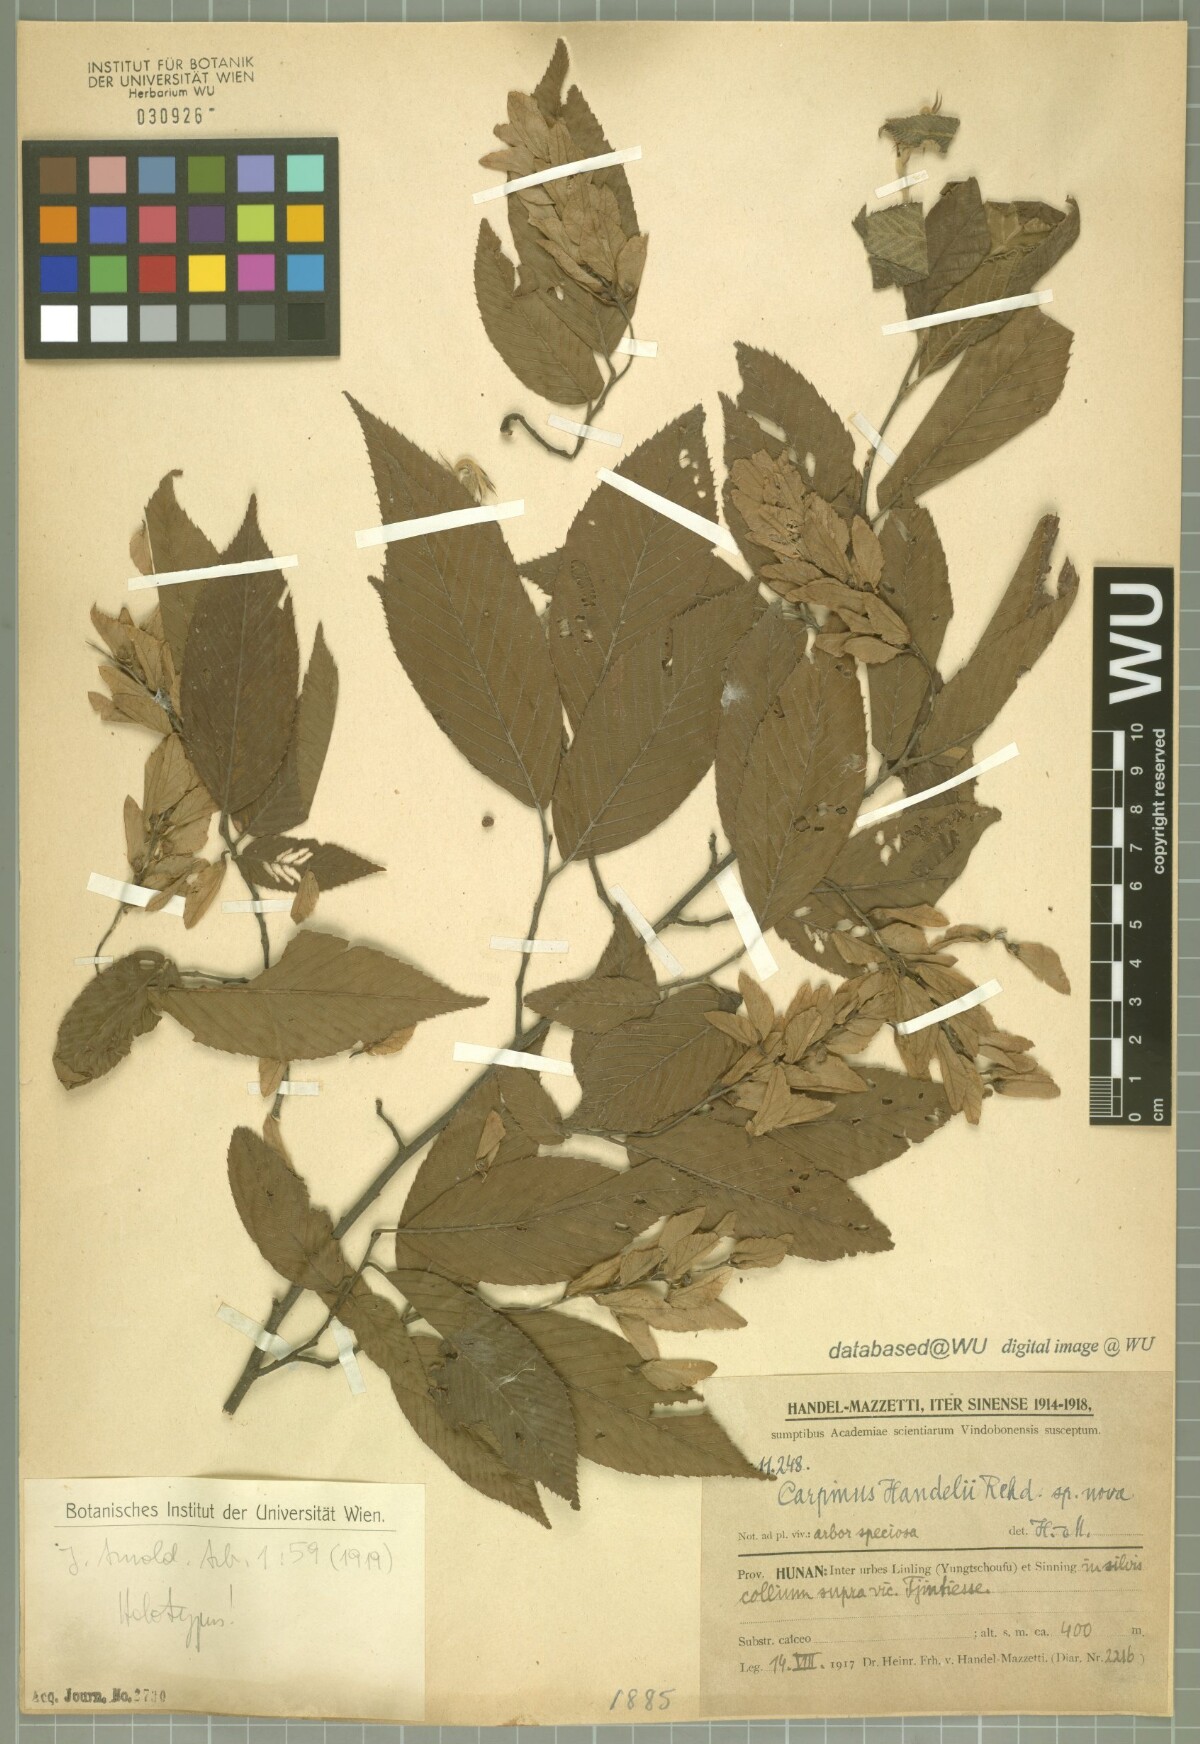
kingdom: Plantae
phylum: Tracheophyta
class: Magnoliopsida
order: Fagales
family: Betulaceae
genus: Carpinus
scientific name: Carpinus polyneura
